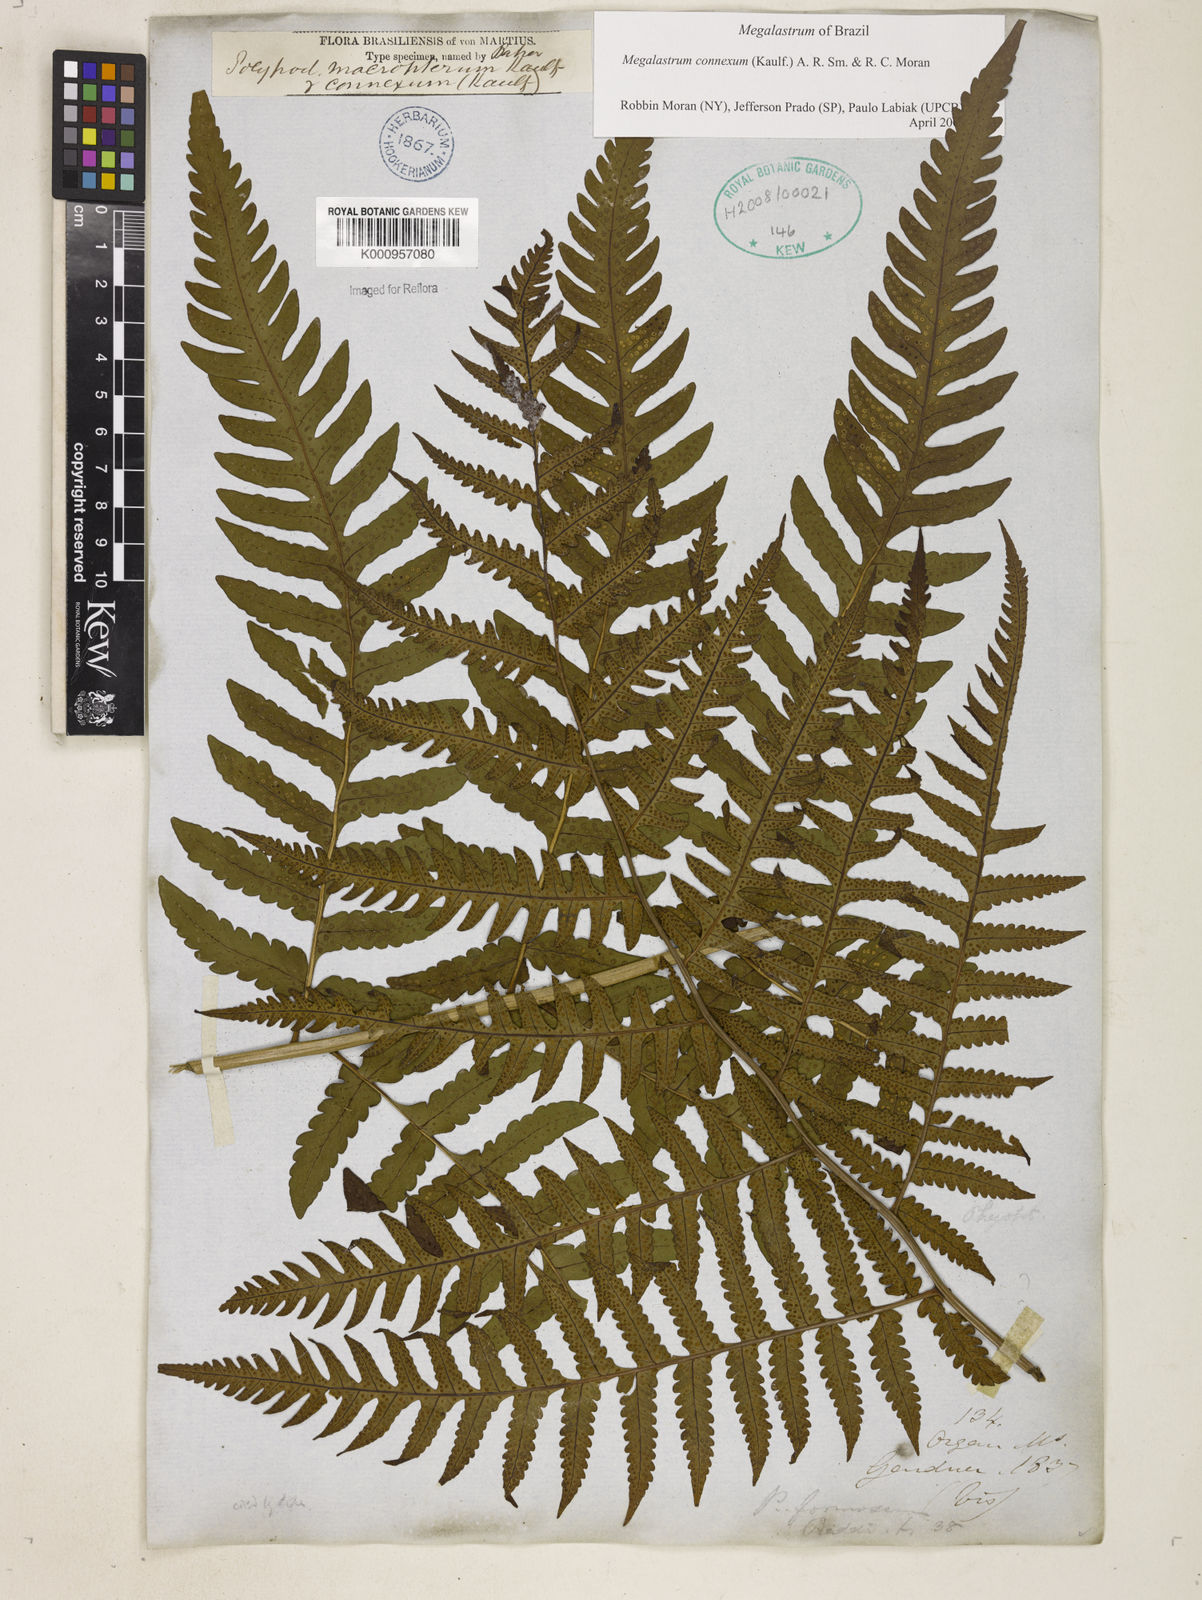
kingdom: Plantae
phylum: Tracheophyta
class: Polypodiopsida
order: Polypodiales
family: Dryopteridaceae
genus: Megalastrum
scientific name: Megalastrum connexum
